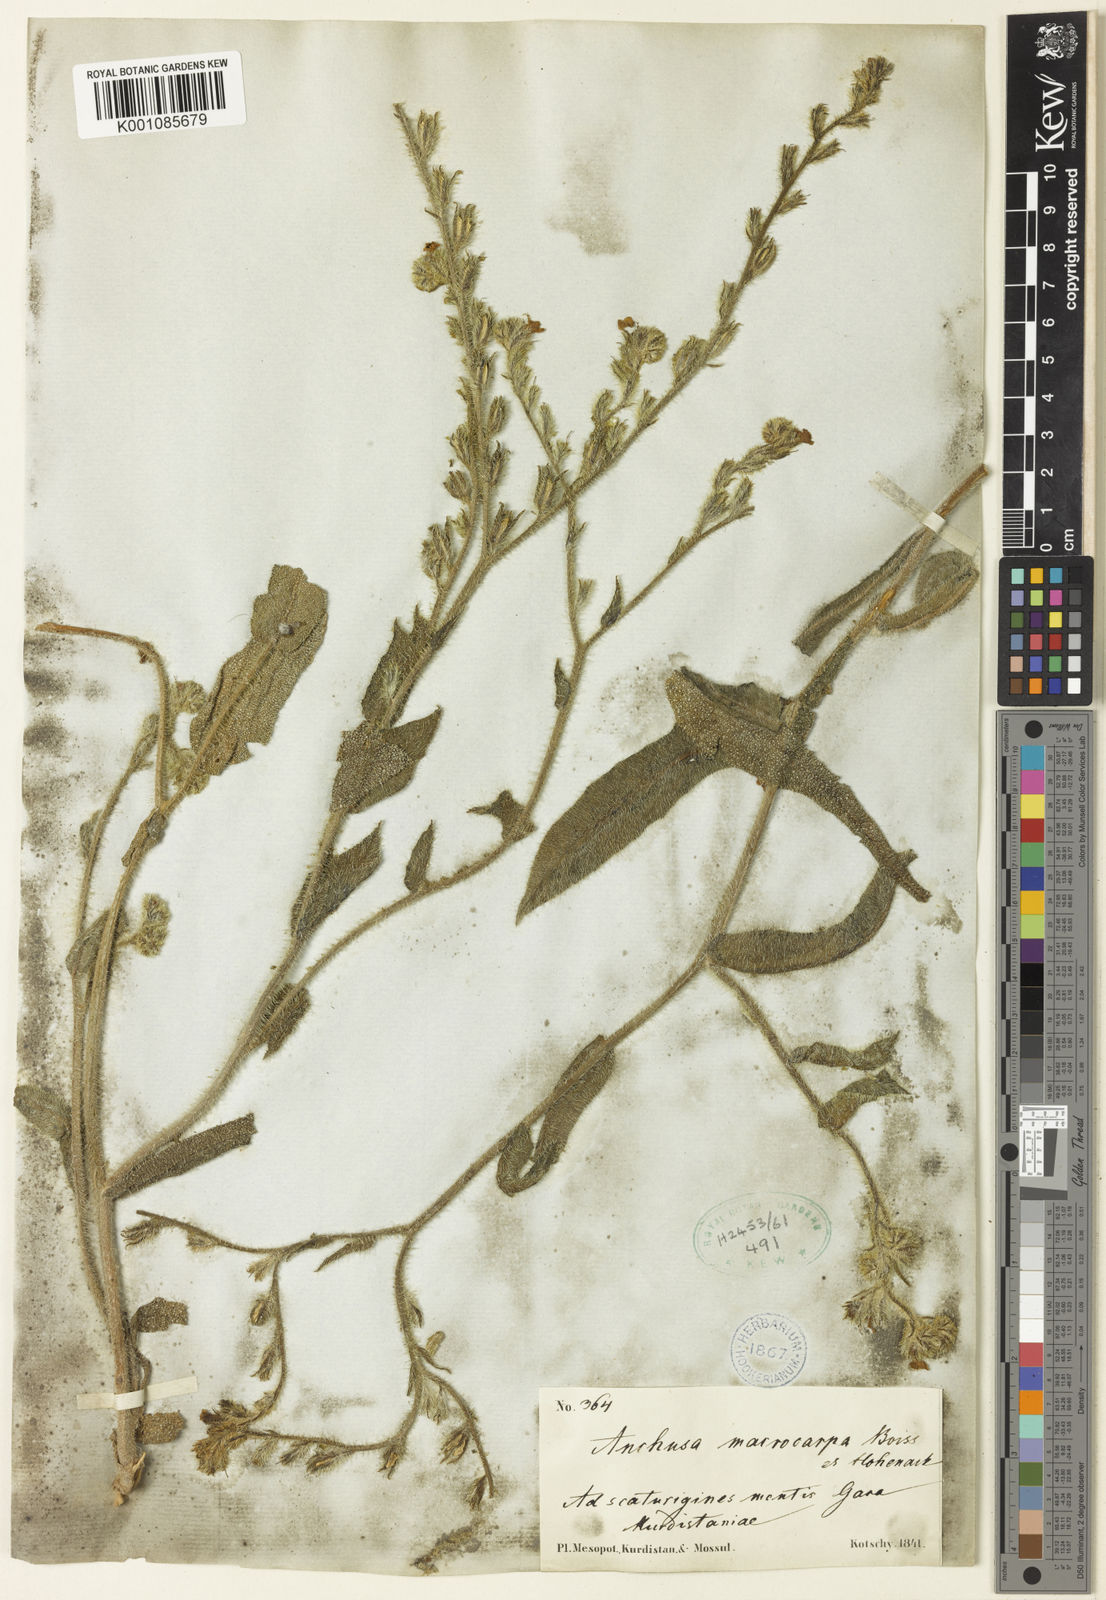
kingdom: Plantae
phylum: Tracheophyta
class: Magnoliopsida
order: Boraginales
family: Boraginaceae
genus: Anchusa
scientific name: Anchusa azurea
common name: Garden anchusa
